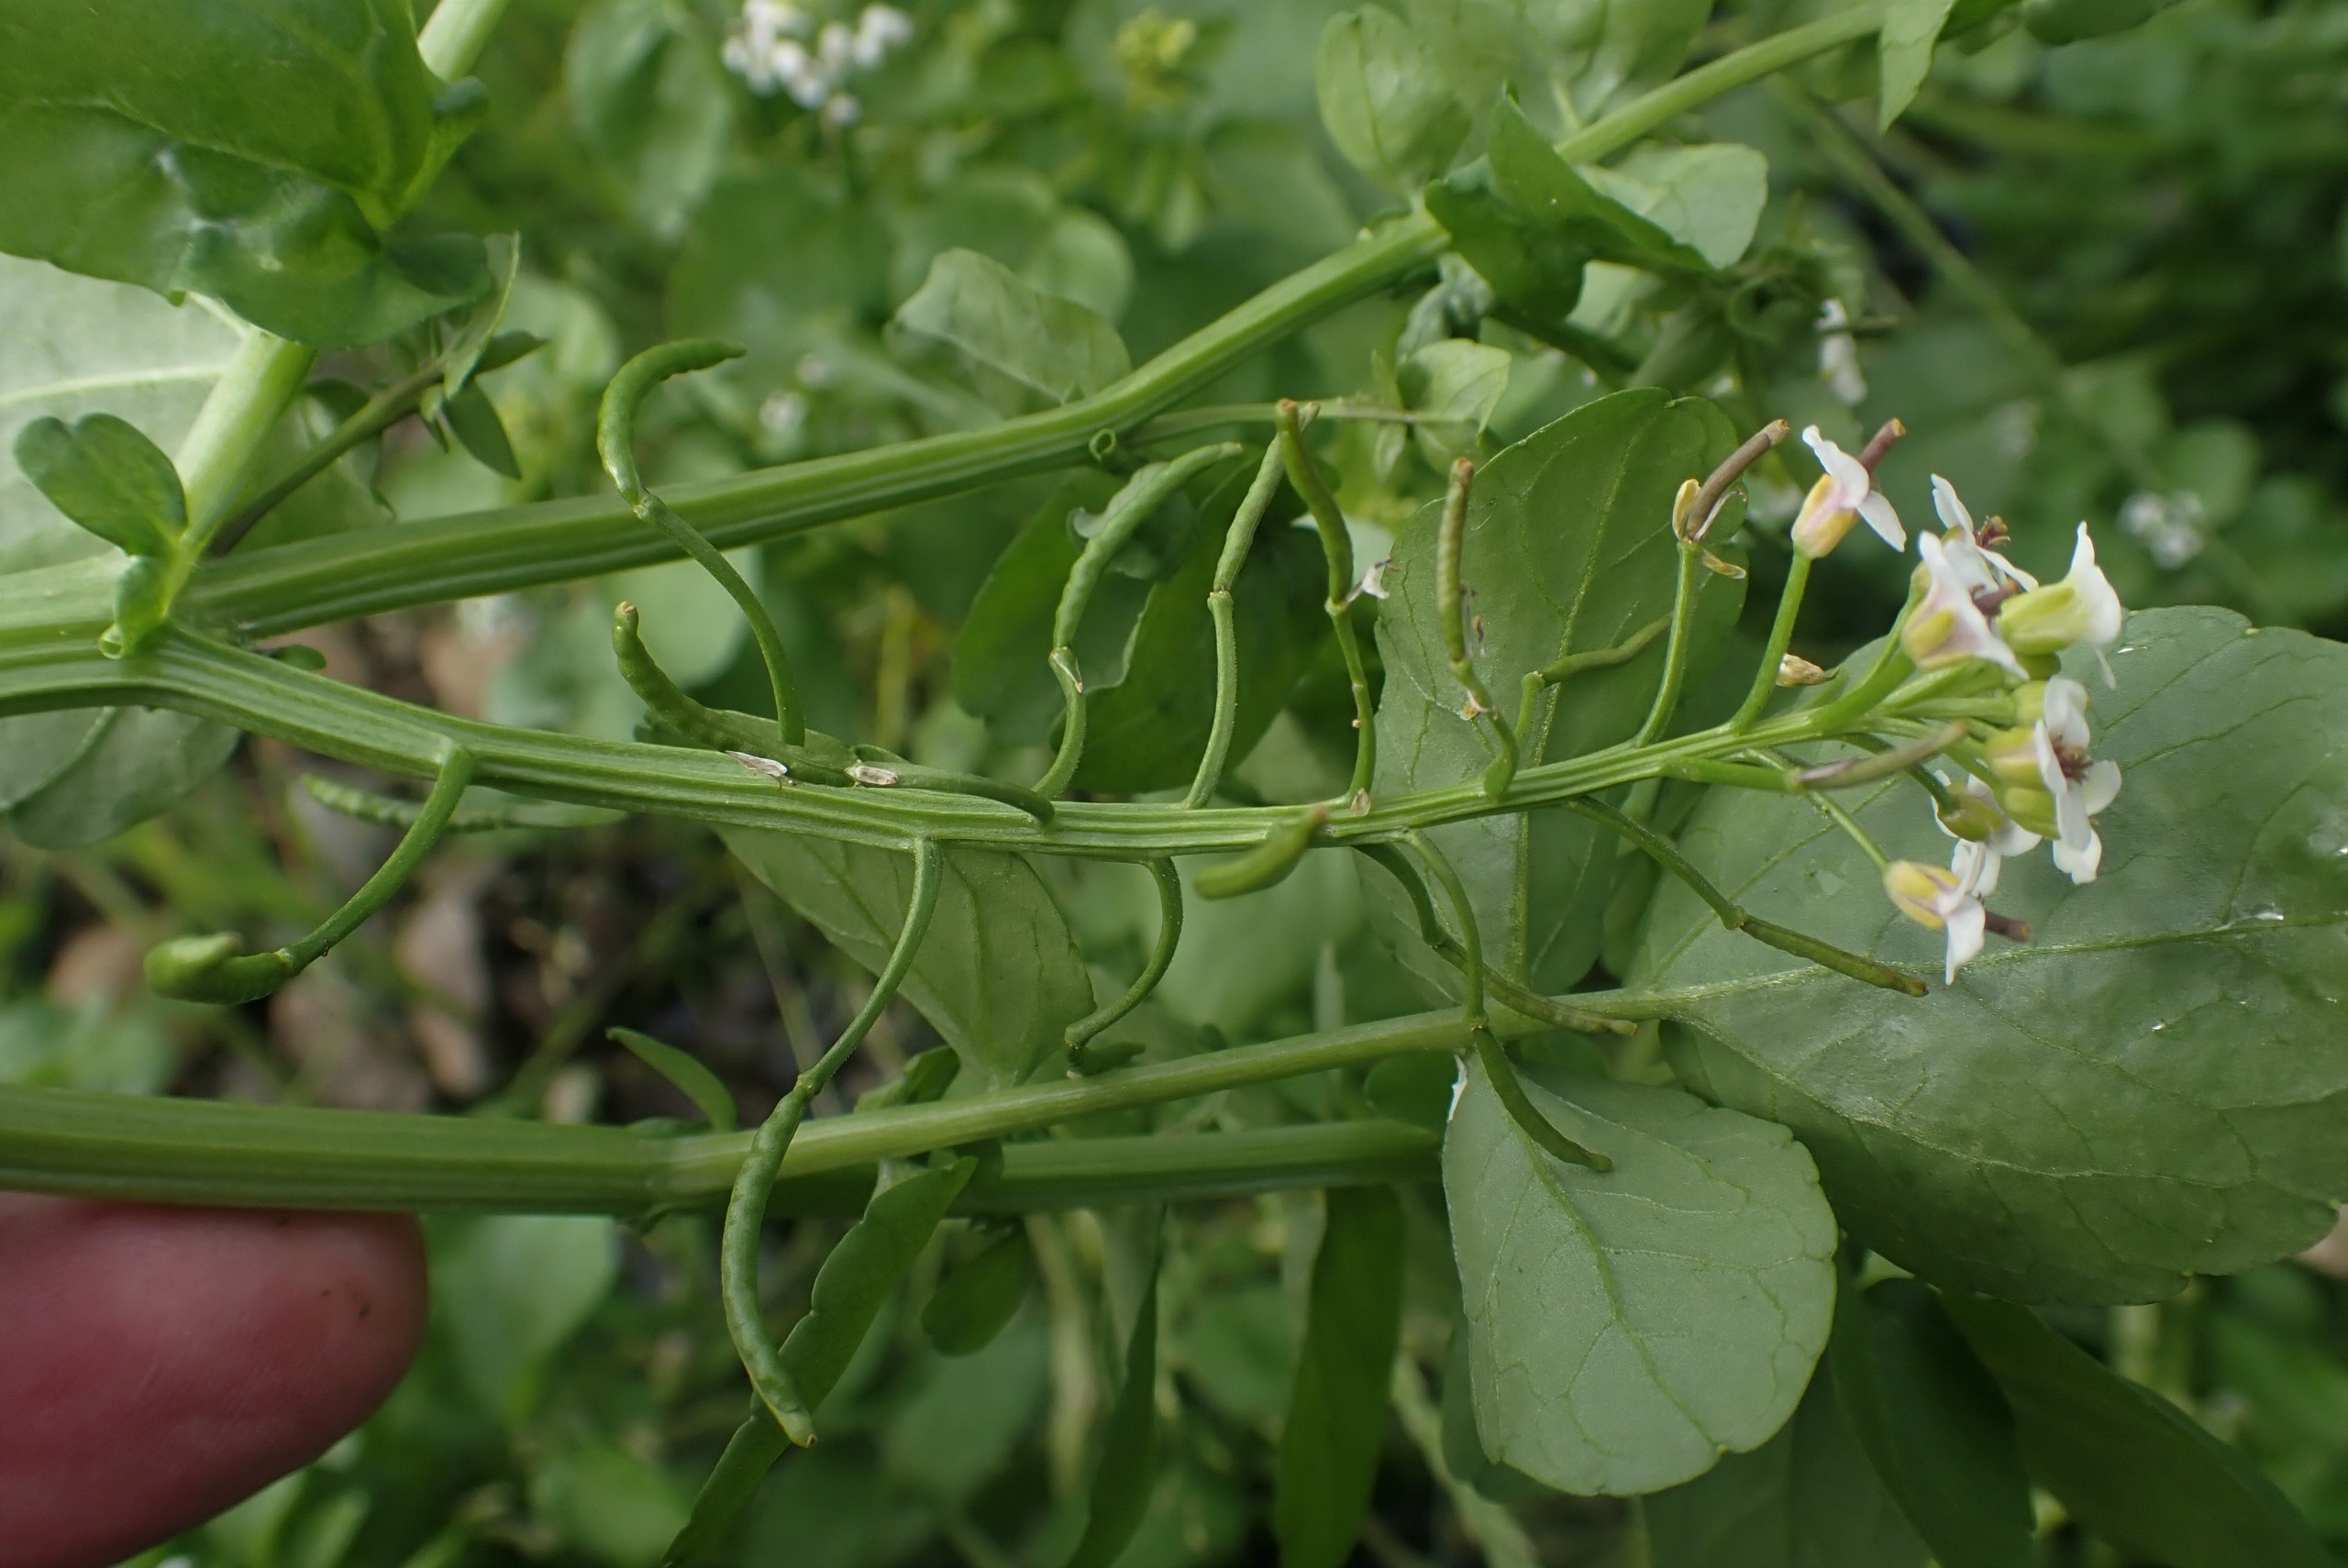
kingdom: Plantae
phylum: Tracheophyta
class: Magnoliopsida
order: Brassicales
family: Brassicaceae
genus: Nasturtium
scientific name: Nasturtium officinale
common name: Tykskulpet brøndkarse
